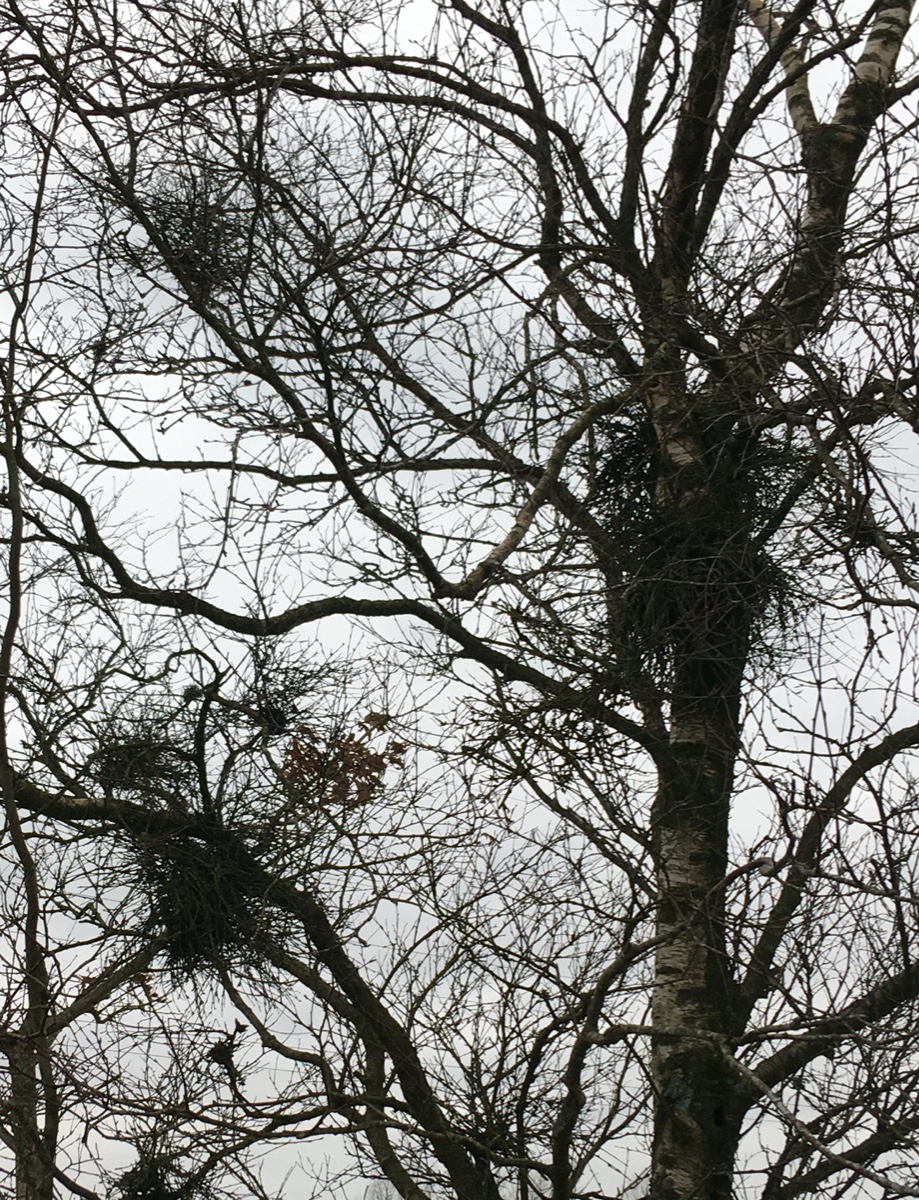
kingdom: Fungi
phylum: Ascomycota
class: Taphrinomycetes
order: Taphrinales
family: Taphrinaceae
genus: Taphrina
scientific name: Taphrina betulina
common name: hekse-sækdug
